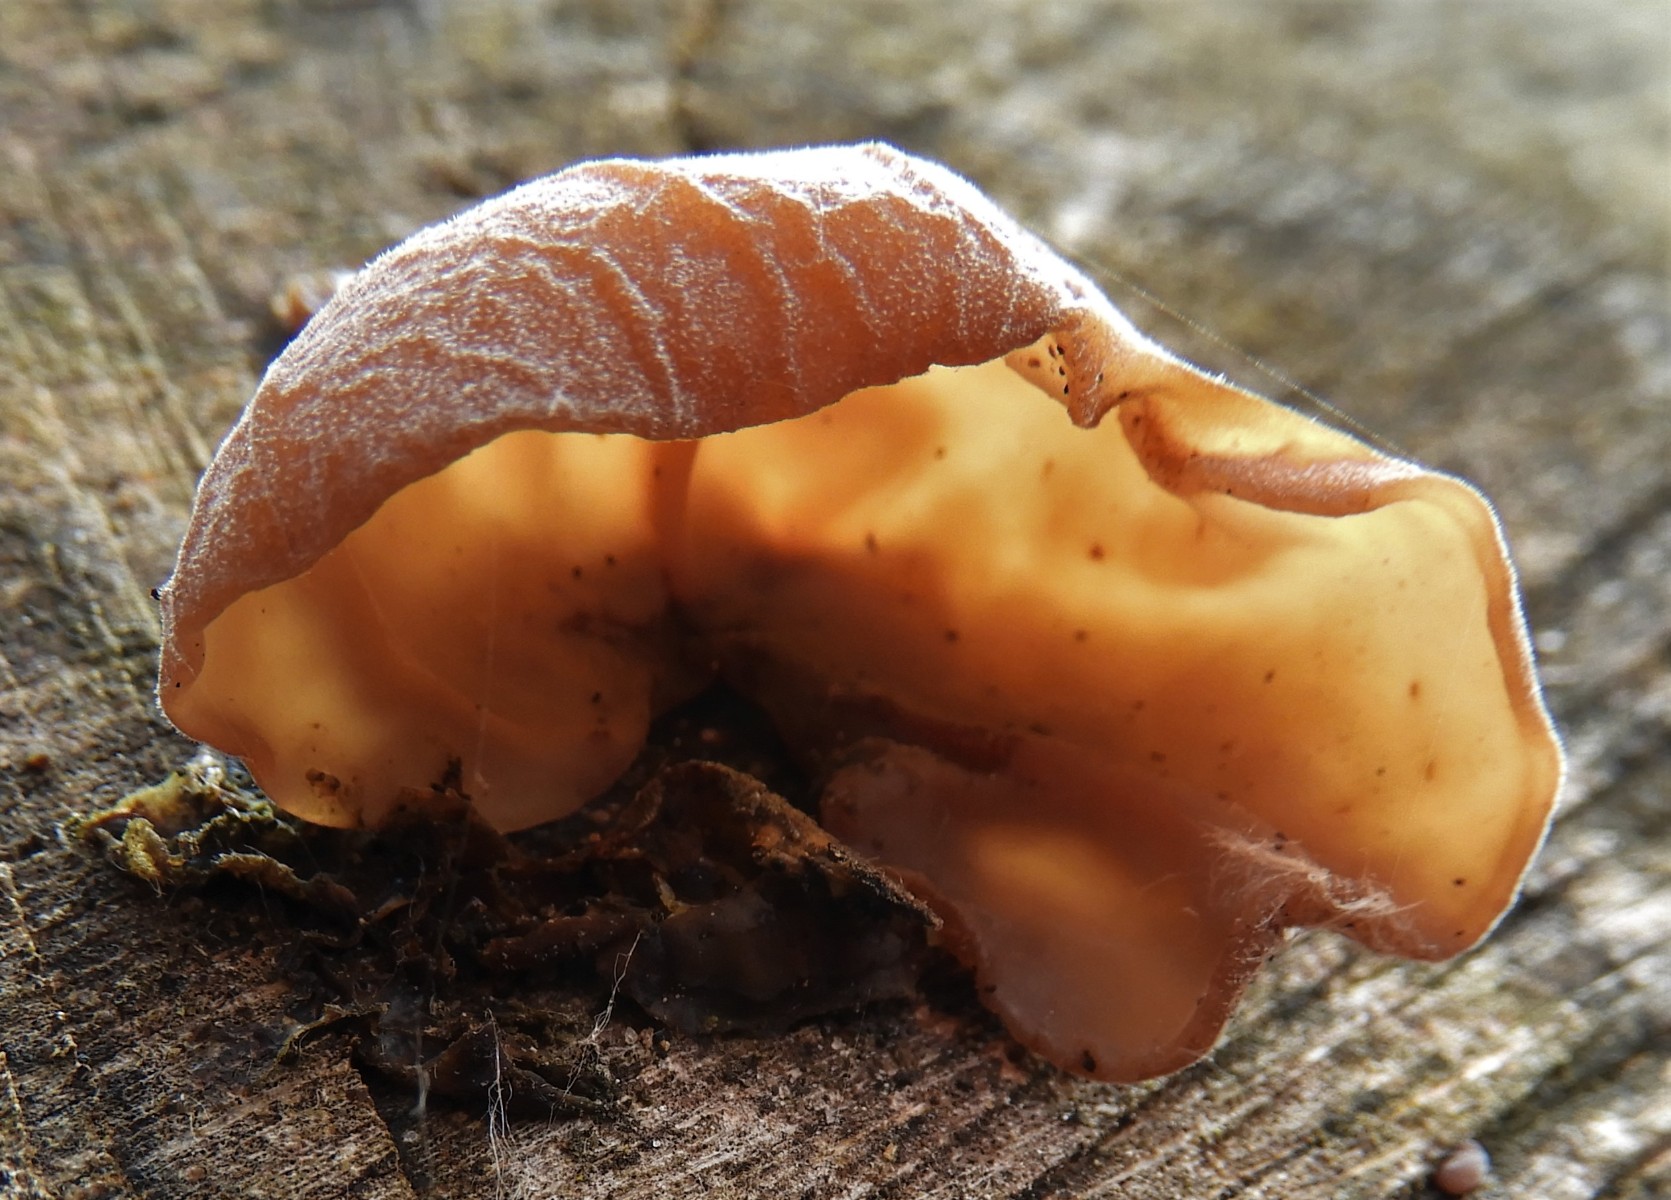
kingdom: Fungi
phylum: Basidiomycota
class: Agaricomycetes
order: Auriculariales
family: Auriculariaceae
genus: Auricularia
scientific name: Auricularia auricula-judae
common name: almindelig judasøre
